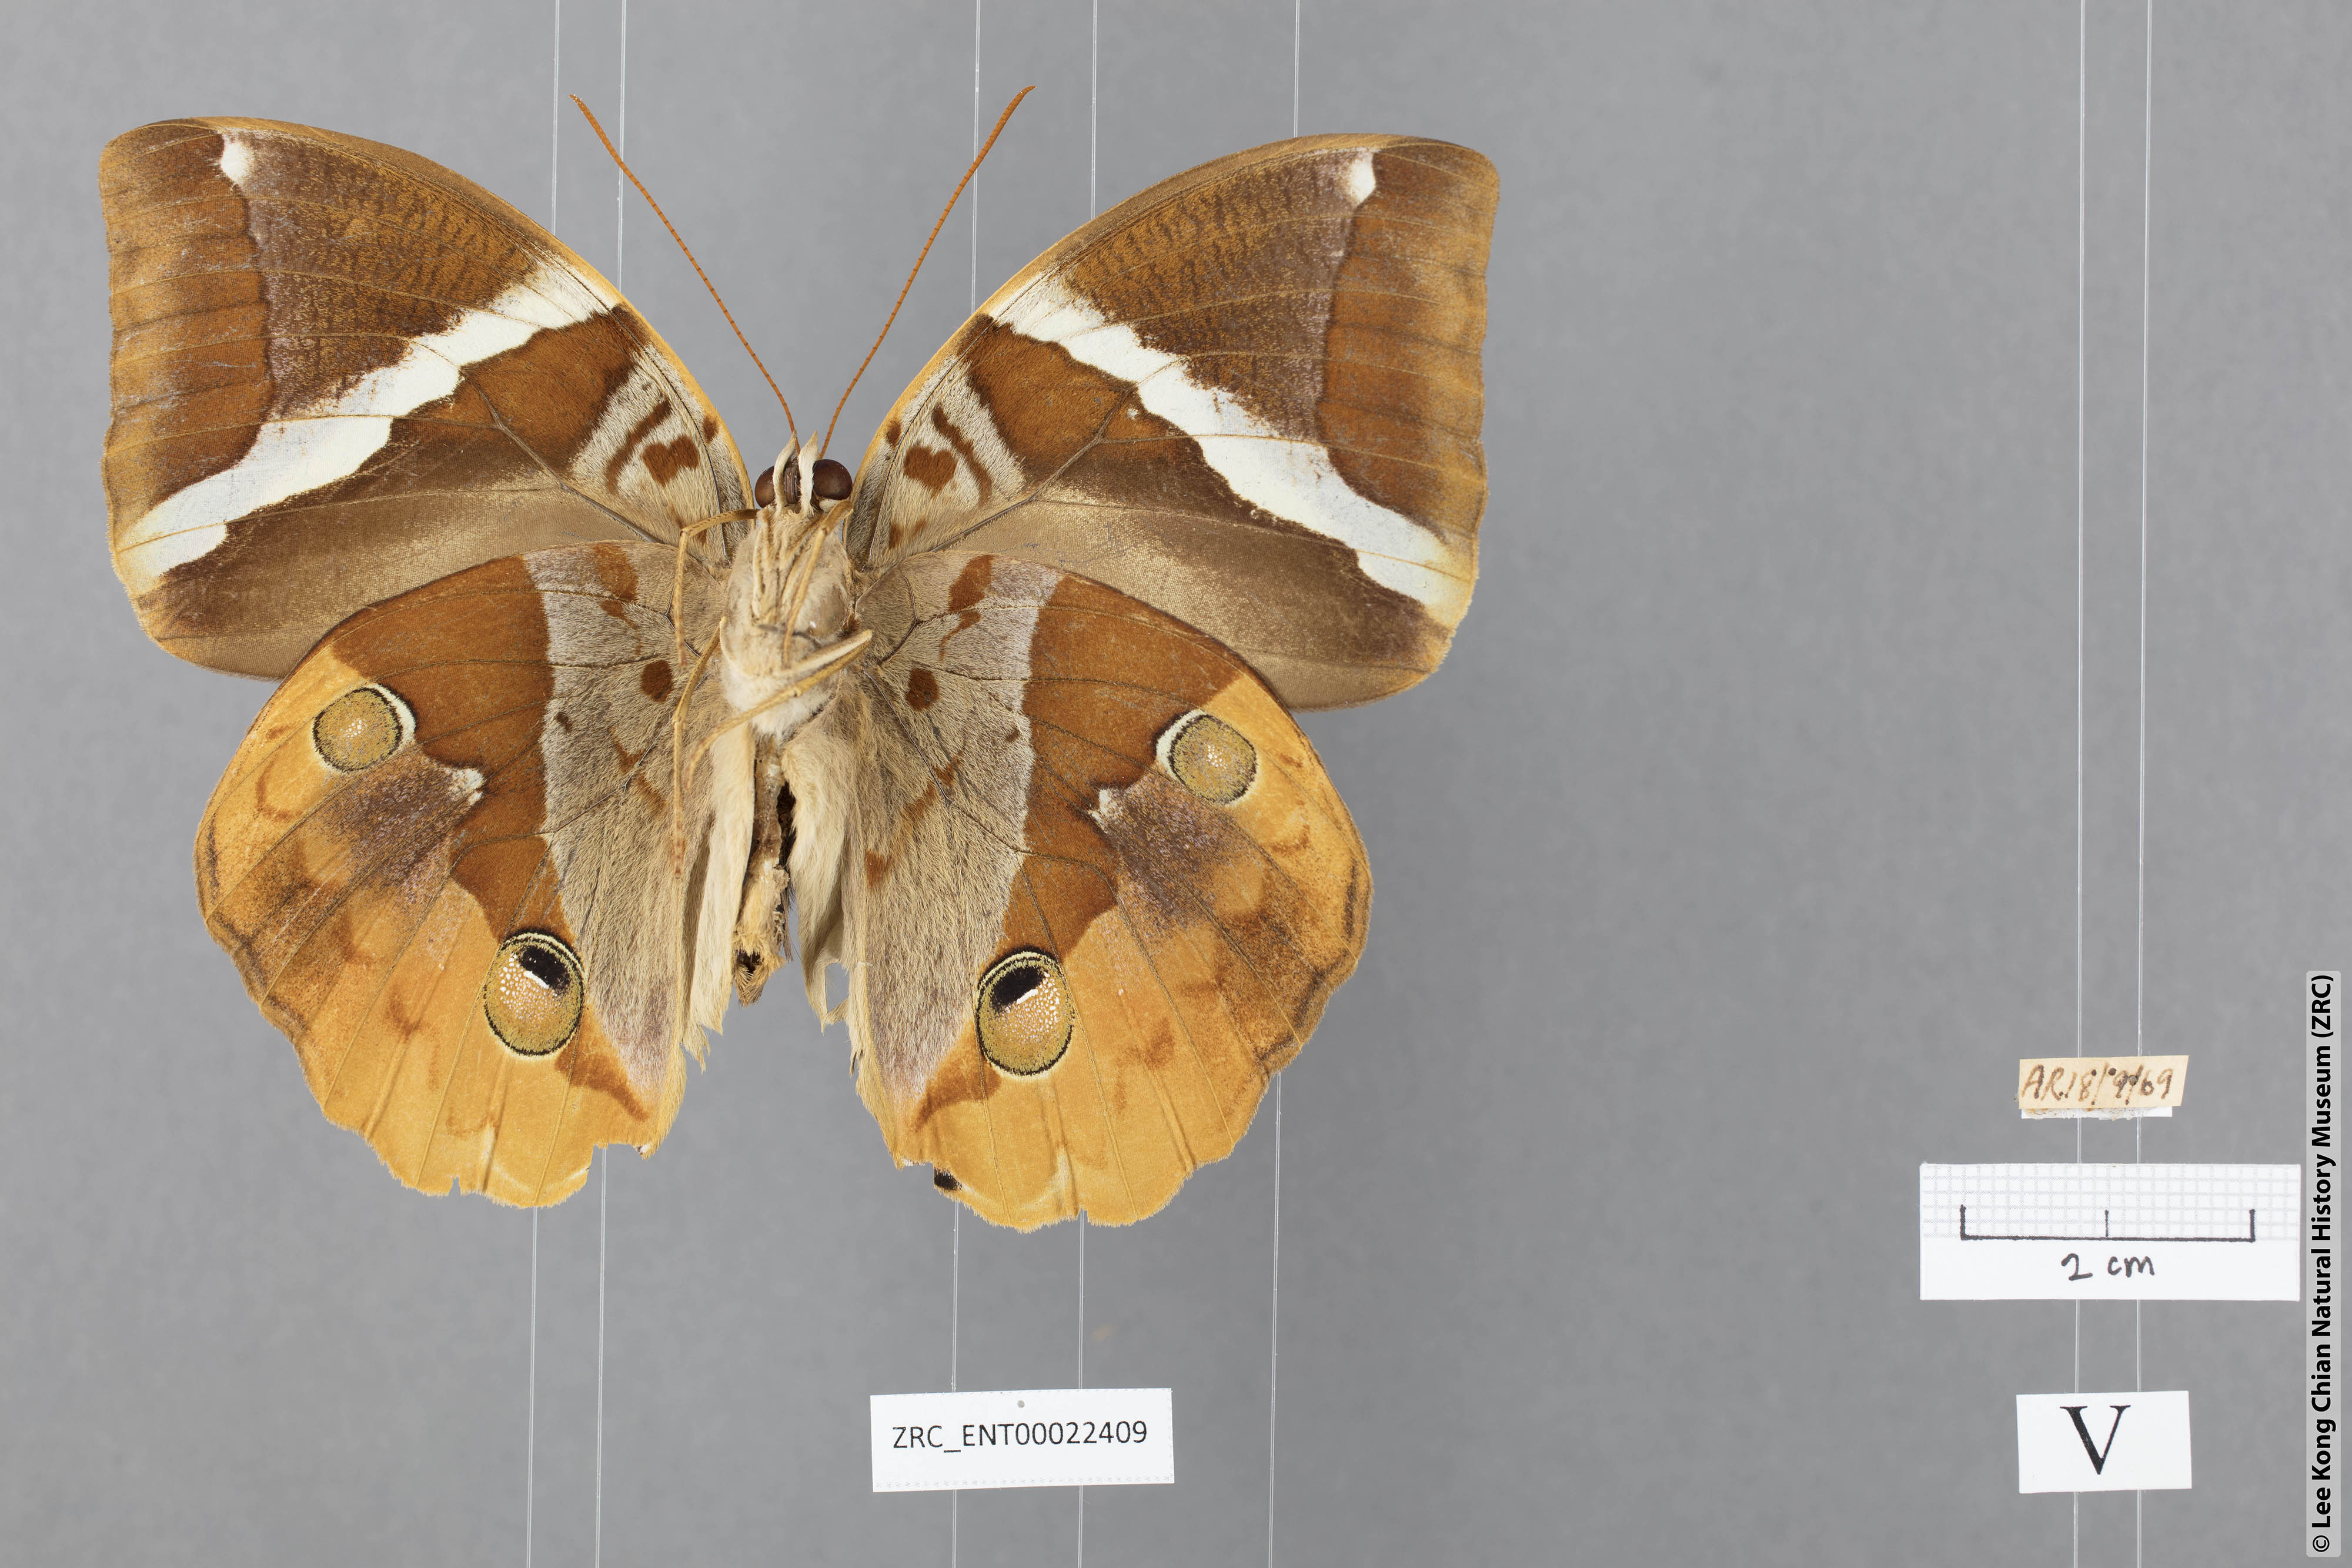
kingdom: Animalia
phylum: Arthropoda
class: Insecta
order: Lepidoptera
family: Nymphalidae
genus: Thauria
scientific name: Thauria aliris
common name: Tufted jungle king
